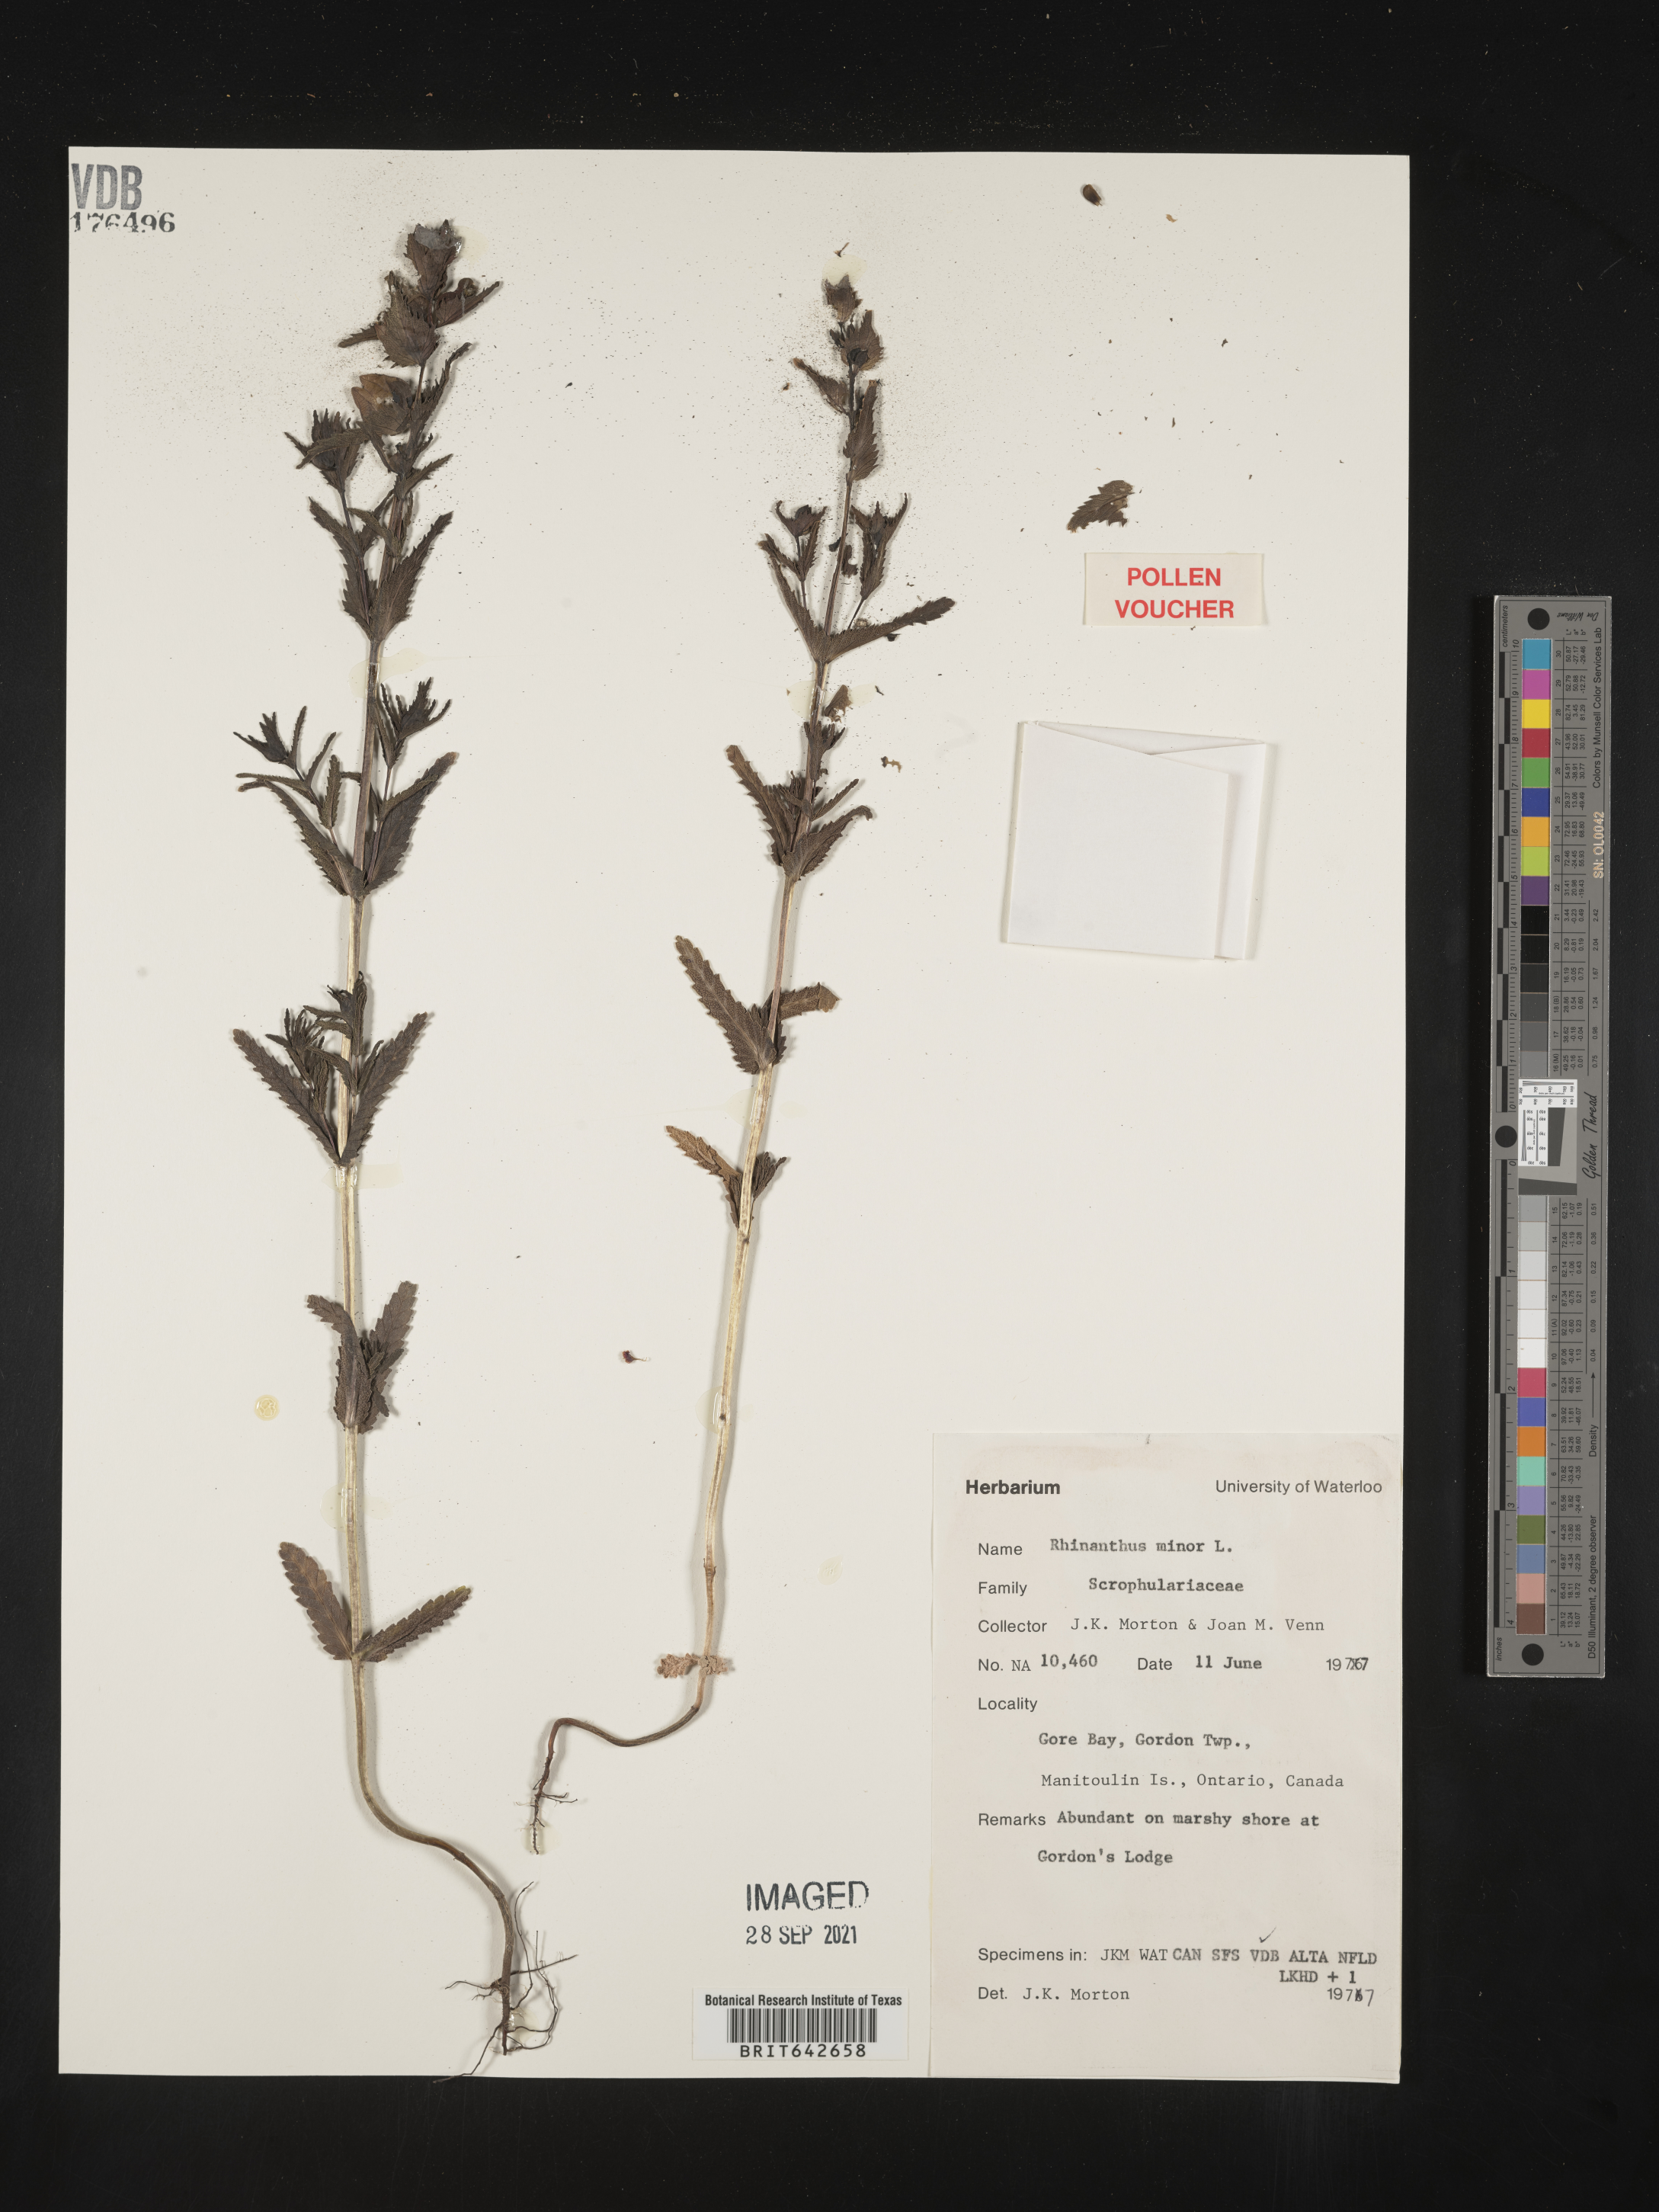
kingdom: Plantae
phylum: Tracheophyta
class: Magnoliopsida
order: Lamiales
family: Orobanchaceae
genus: Rhinanthus
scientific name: Rhinanthus
